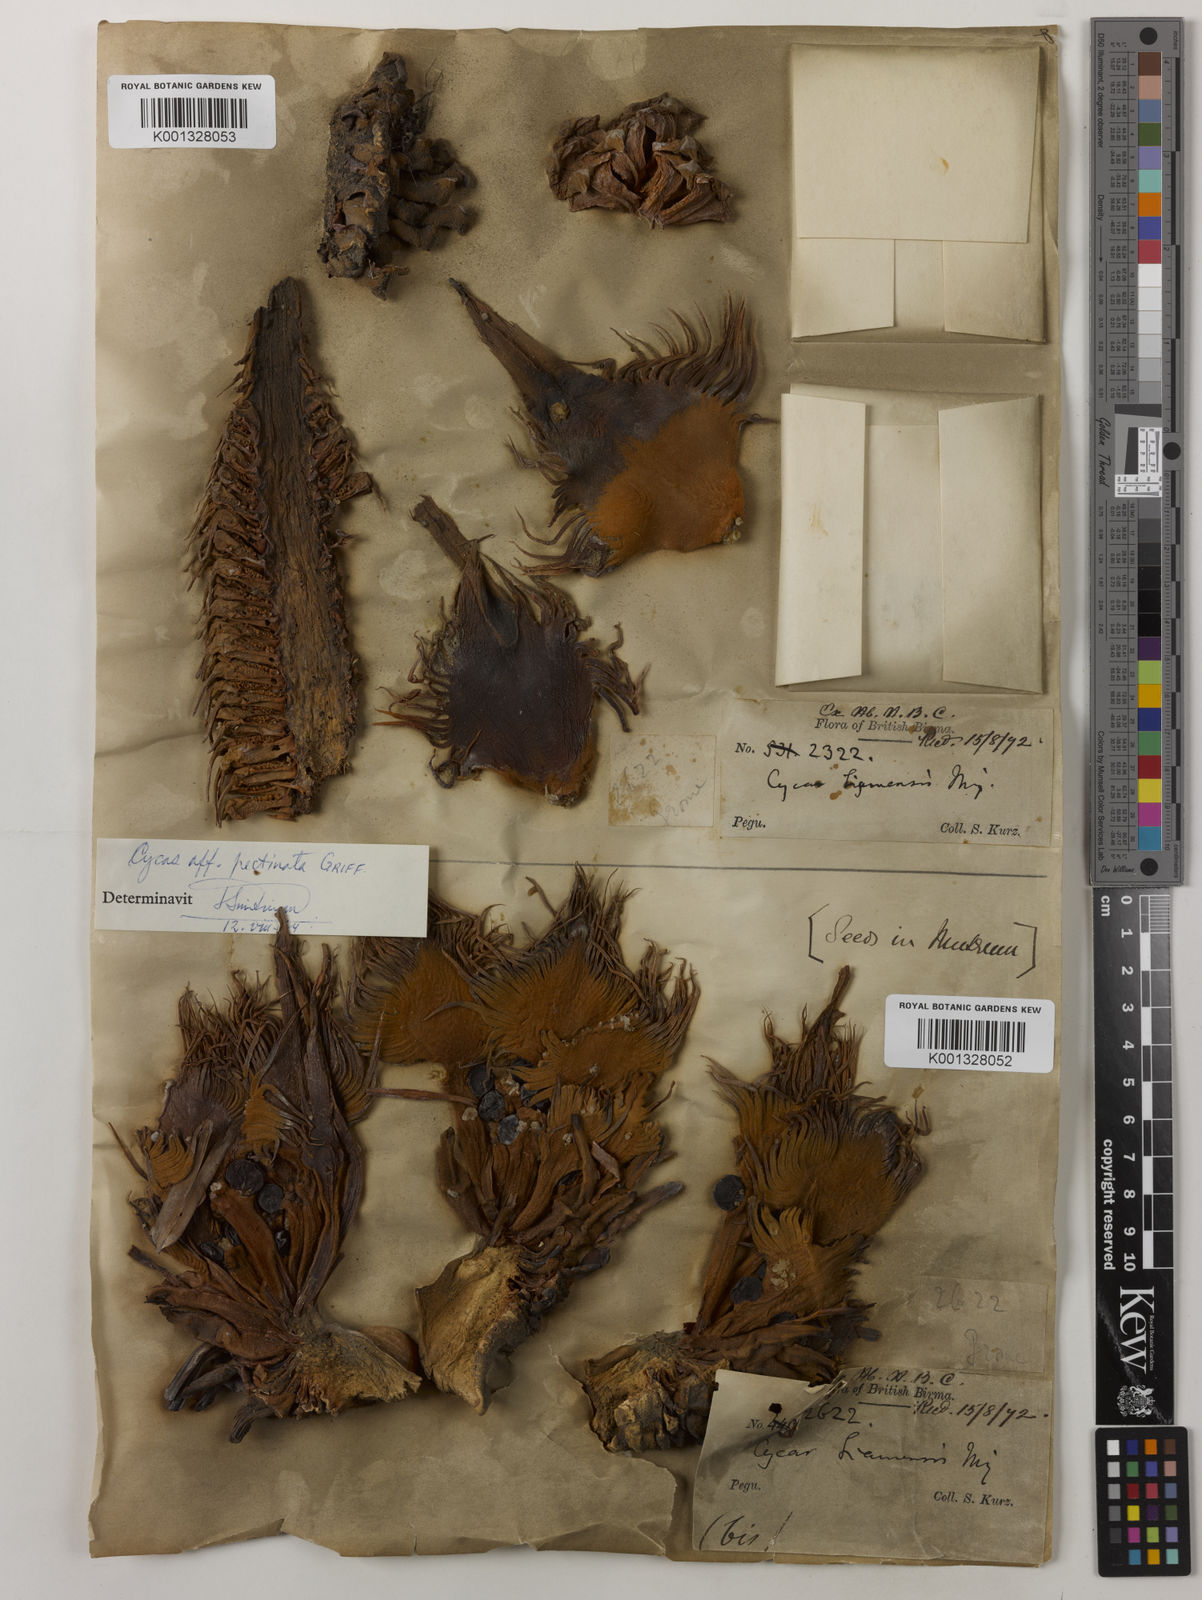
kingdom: Plantae
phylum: Tracheophyta
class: Cycadopsida
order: Cycadales
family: Cycadaceae
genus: Cycas
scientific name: Cycas siamensis
